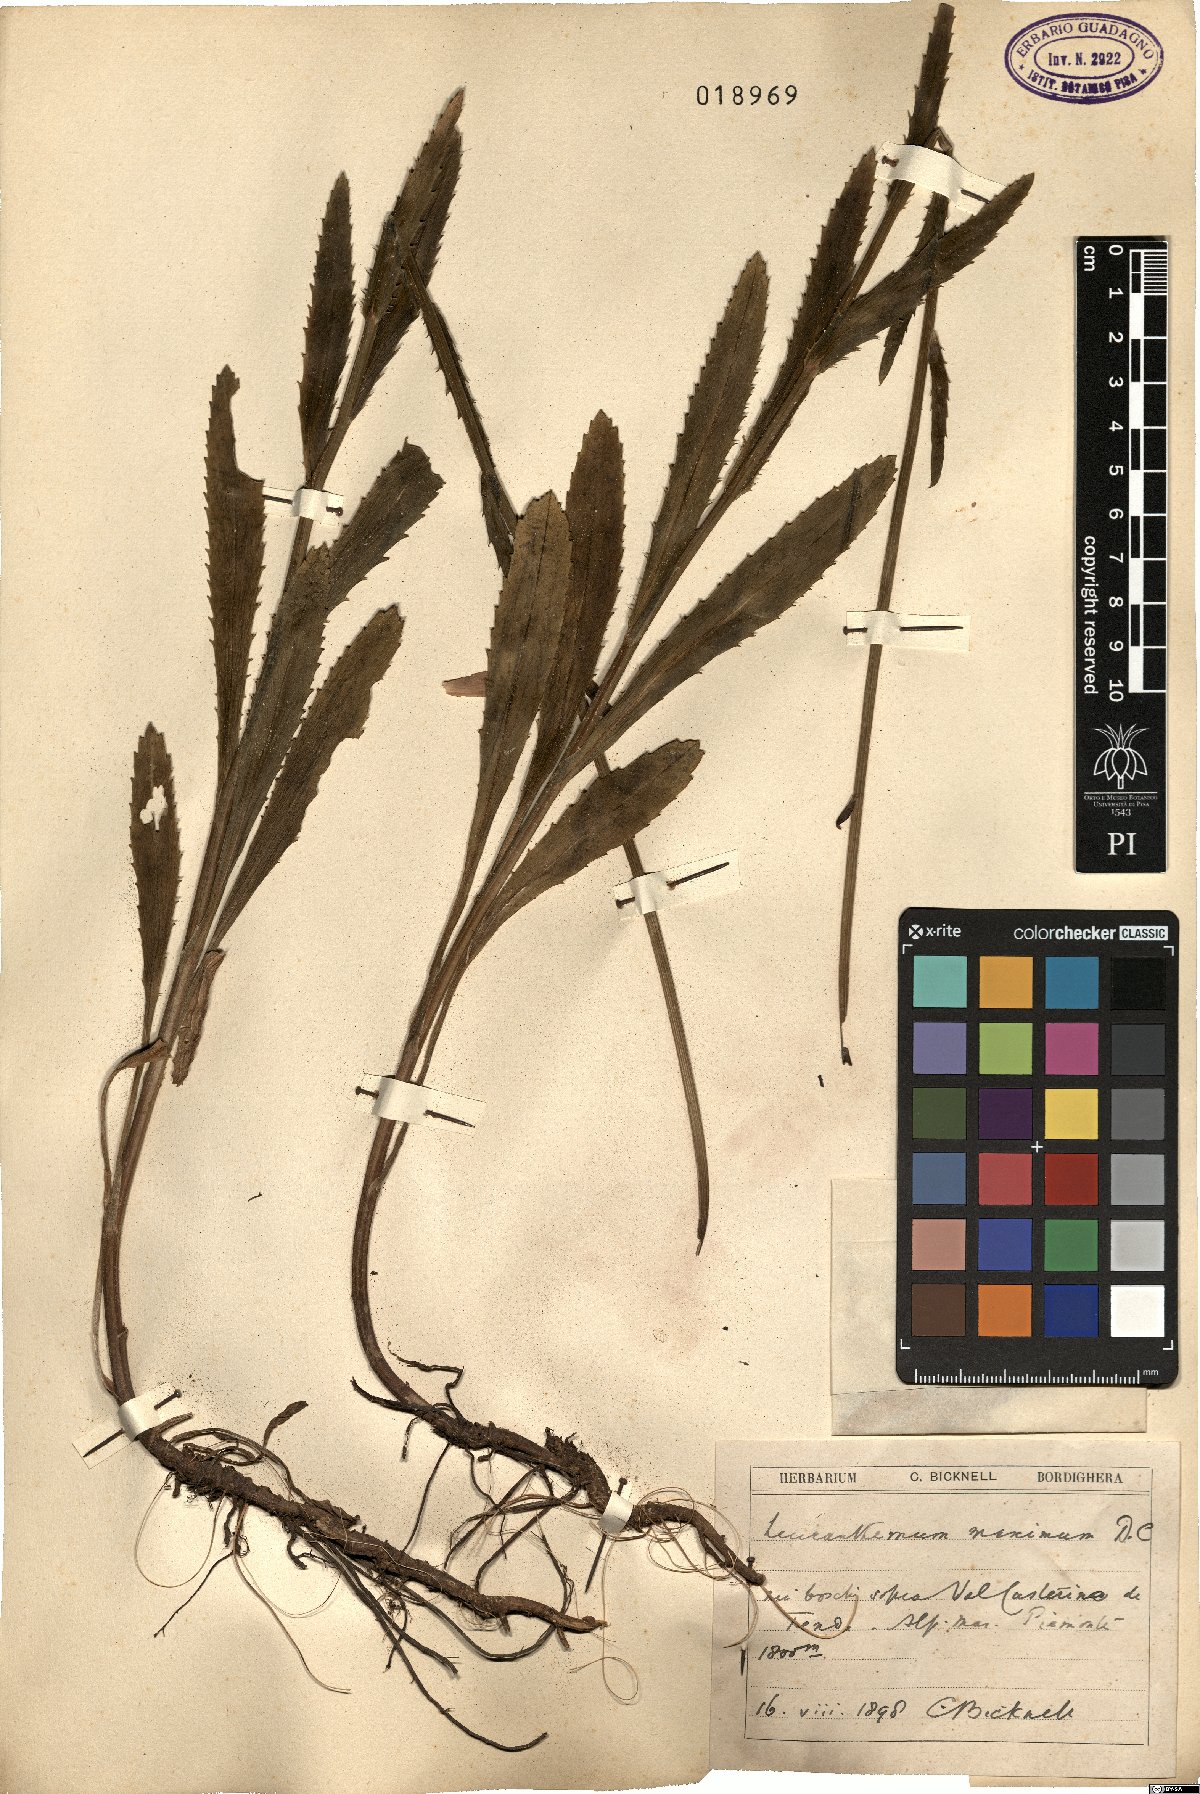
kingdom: Plantae
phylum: Tracheophyta
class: Magnoliopsida
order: Asterales
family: Asteraceae
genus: Leucanthemum
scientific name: Leucanthemum maximum
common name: Max chrysanthemum
